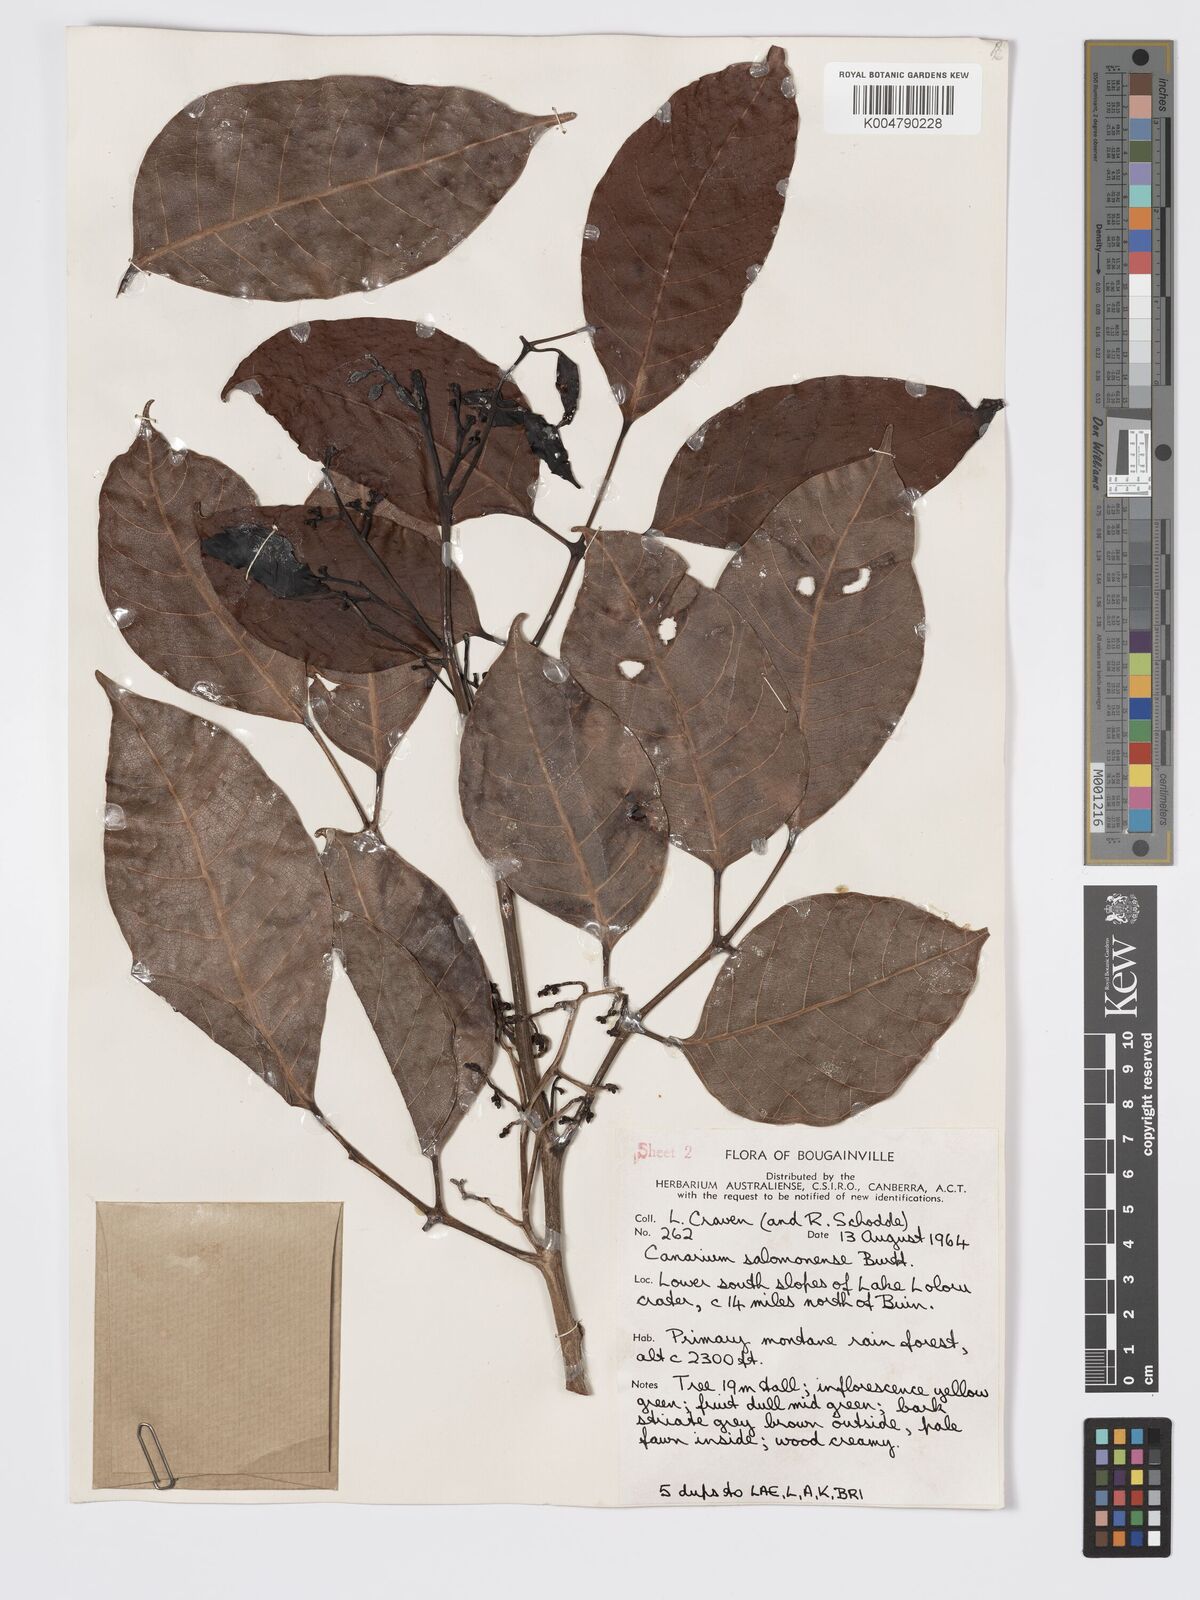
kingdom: Plantae
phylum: Tracheophyta
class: Magnoliopsida
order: Sapindales
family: Burseraceae
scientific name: Burseraceae
